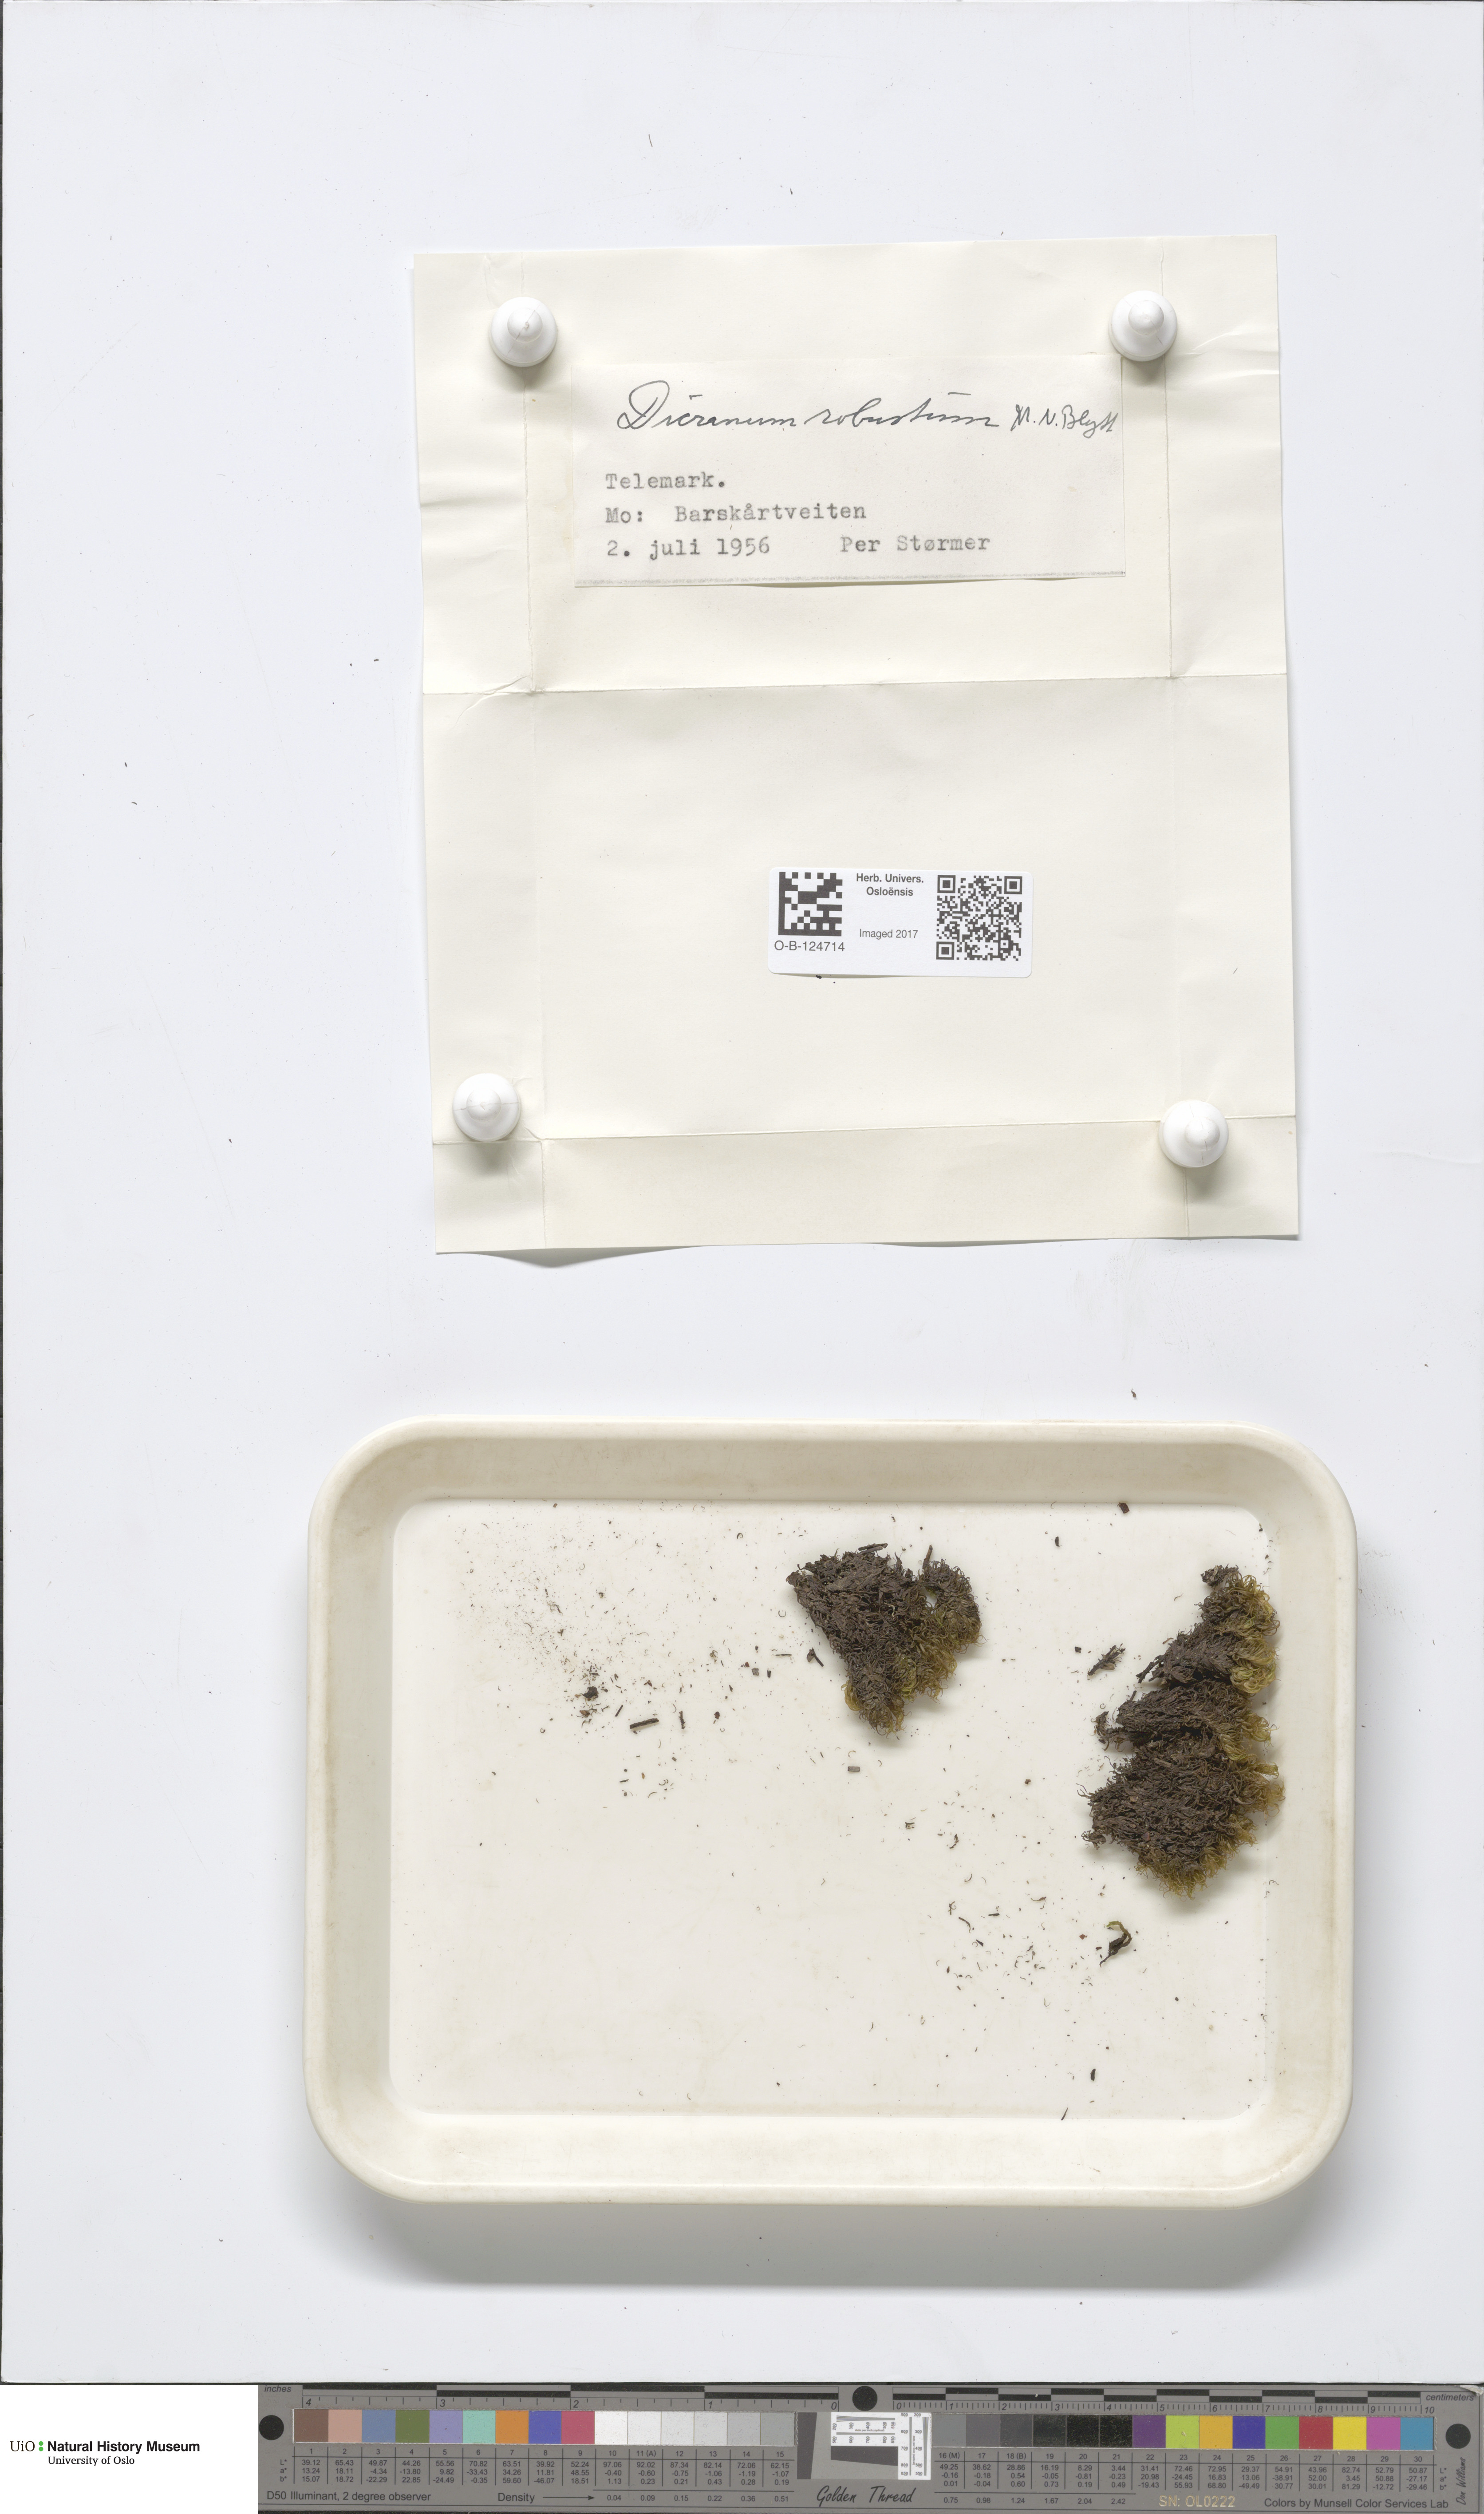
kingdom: Plantae
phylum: Bryophyta
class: Bryopsida
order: Dicranales
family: Dicranaceae
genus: Dicranum
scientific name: Dicranum drummondii
